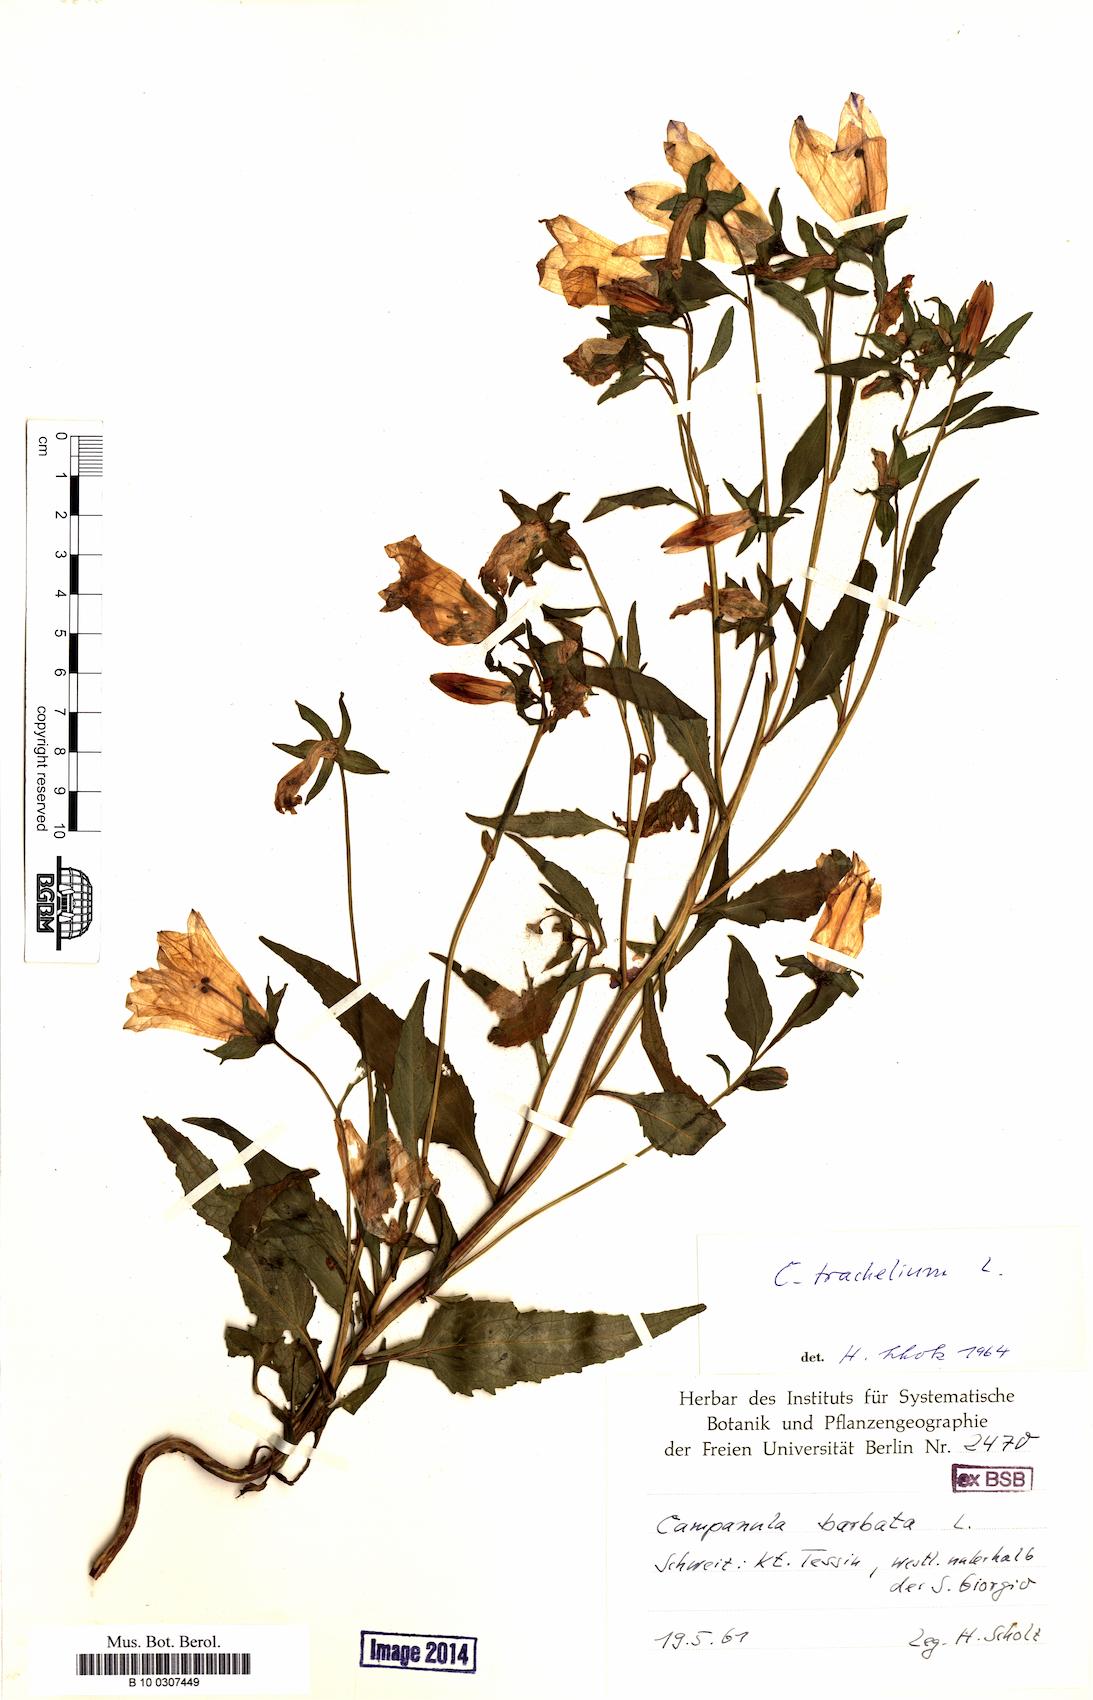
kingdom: Plantae
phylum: Tracheophyta
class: Magnoliopsida
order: Asterales
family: Campanulaceae
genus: Campanula
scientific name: Campanula trachelium
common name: Nettle-leaved bellflower
